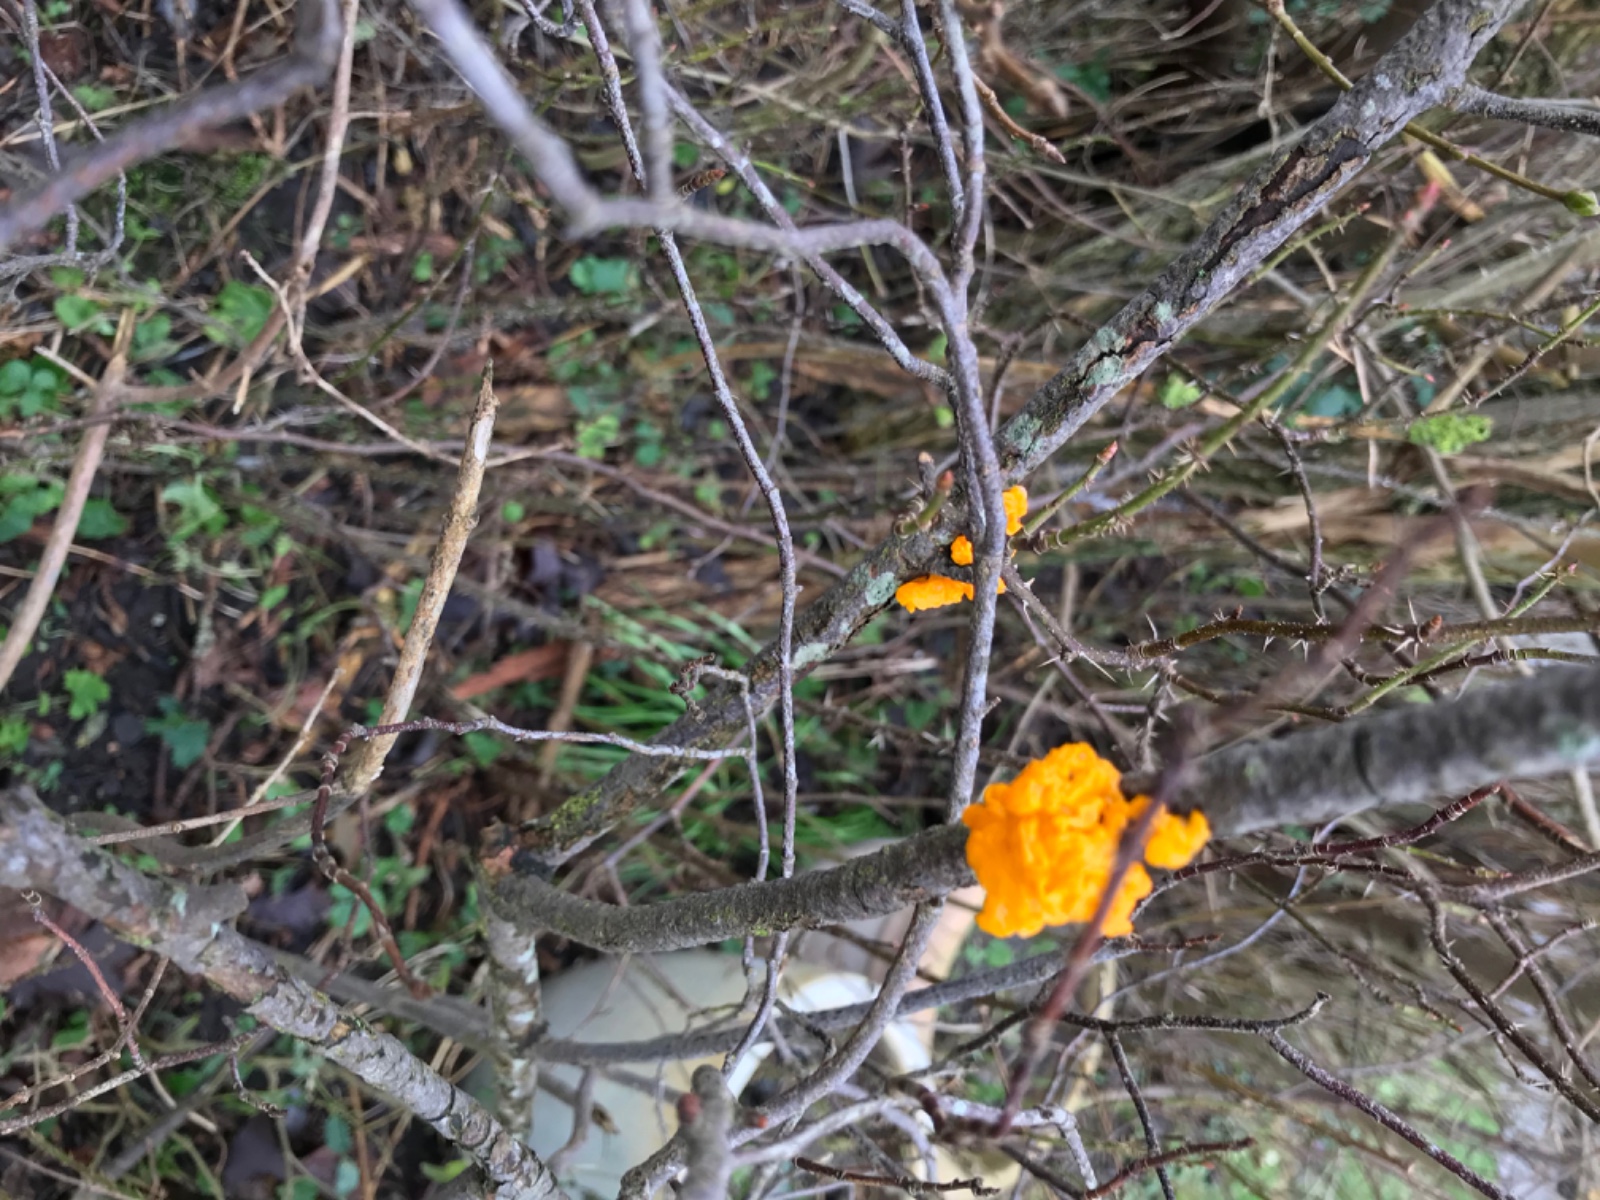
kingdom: Fungi
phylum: Basidiomycota
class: Tremellomycetes
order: Tremellales
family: Tremellaceae
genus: Tremella
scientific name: Tremella mesenterica
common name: gul bævresvamp
